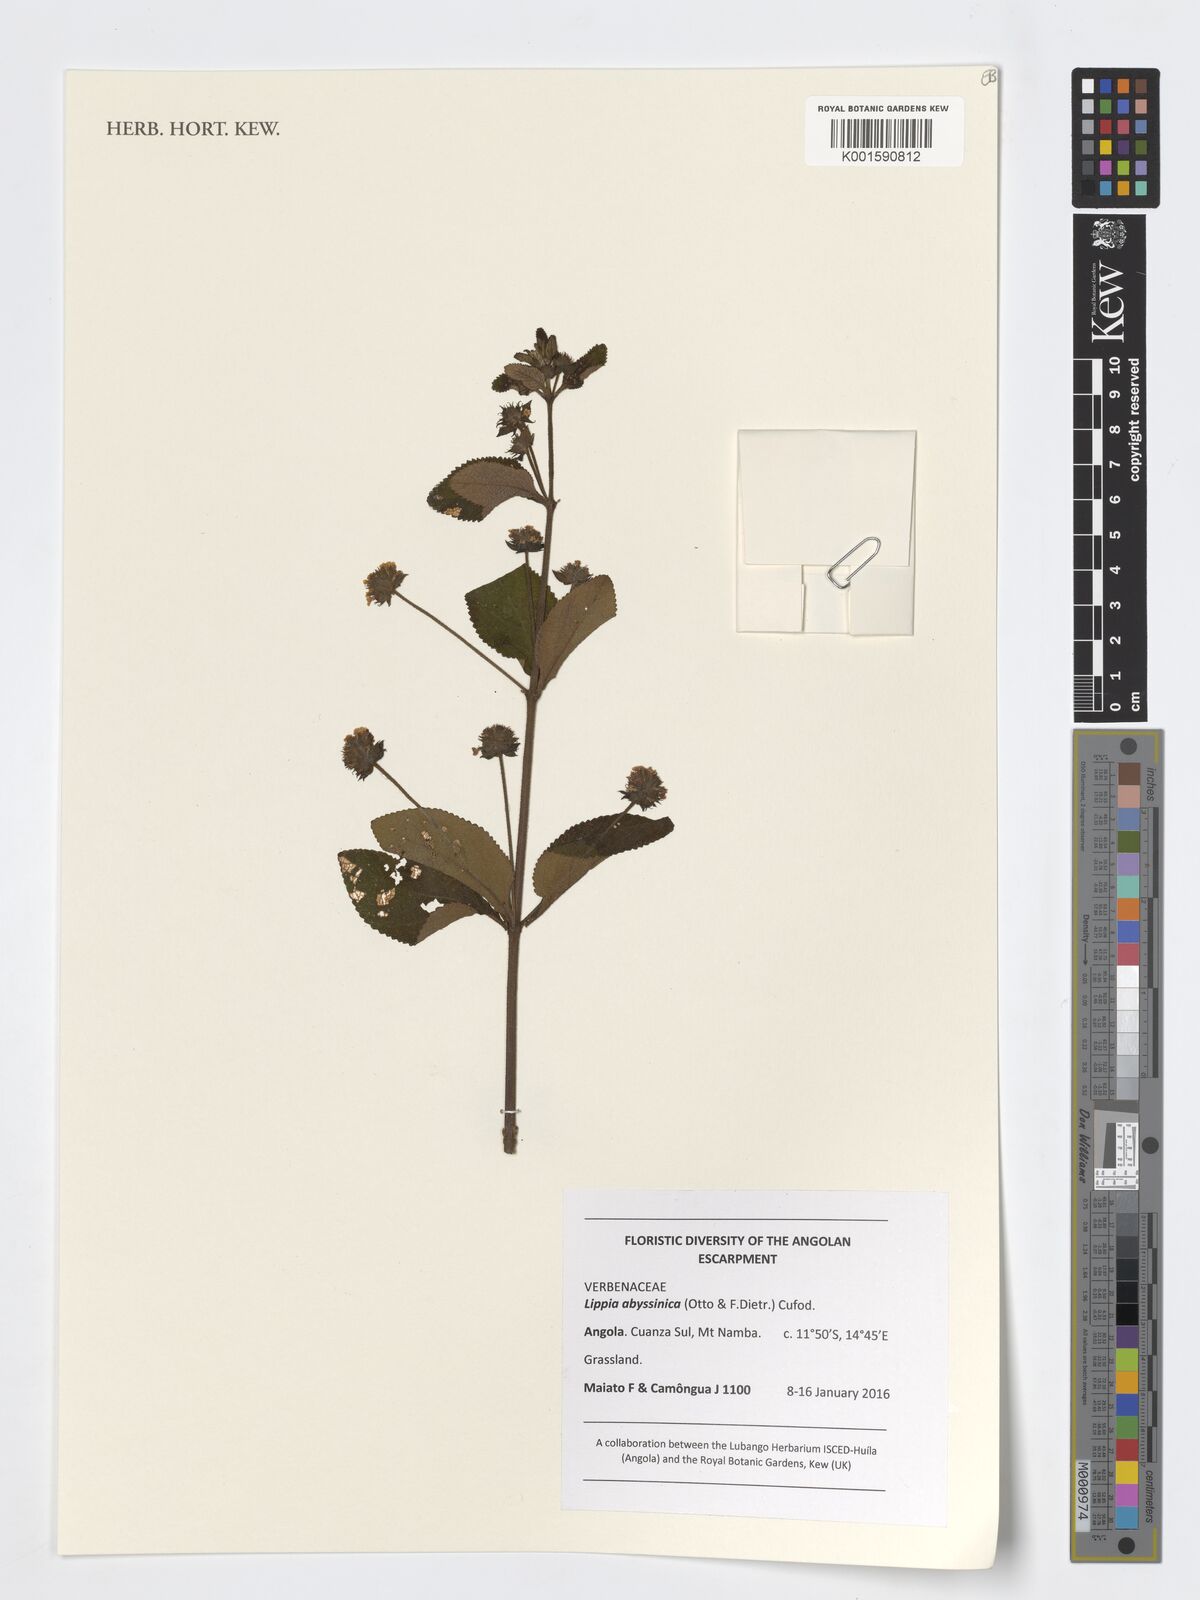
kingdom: Plantae
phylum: Tracheophyta
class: Magnoliopsida
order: Lamiales
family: Verbenaceae
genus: Lippia
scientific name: Lippia abyssinica
